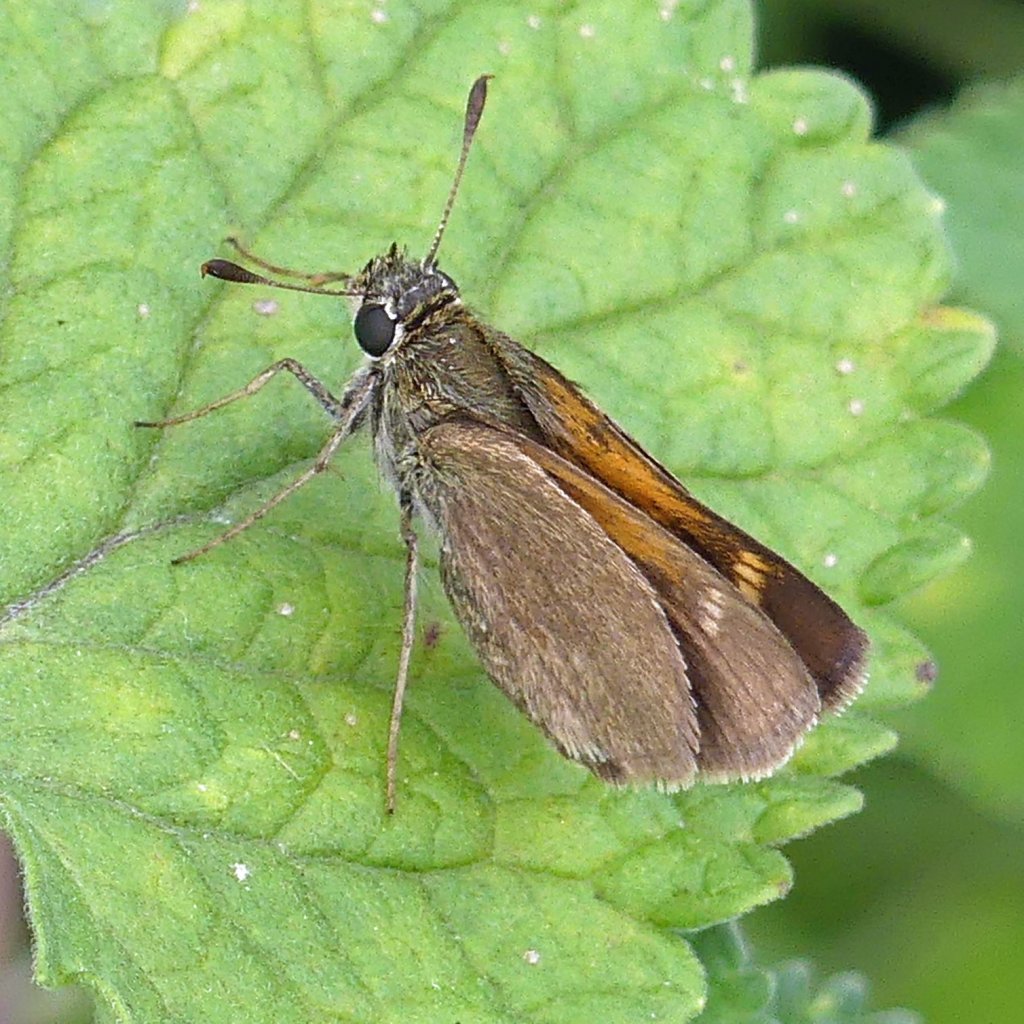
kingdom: Animalia
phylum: Arthropoda
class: Insecta
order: Lepidoptera
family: Hesperiidae
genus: Polites
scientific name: Polites themistocles
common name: Tawny-edged Skipper
